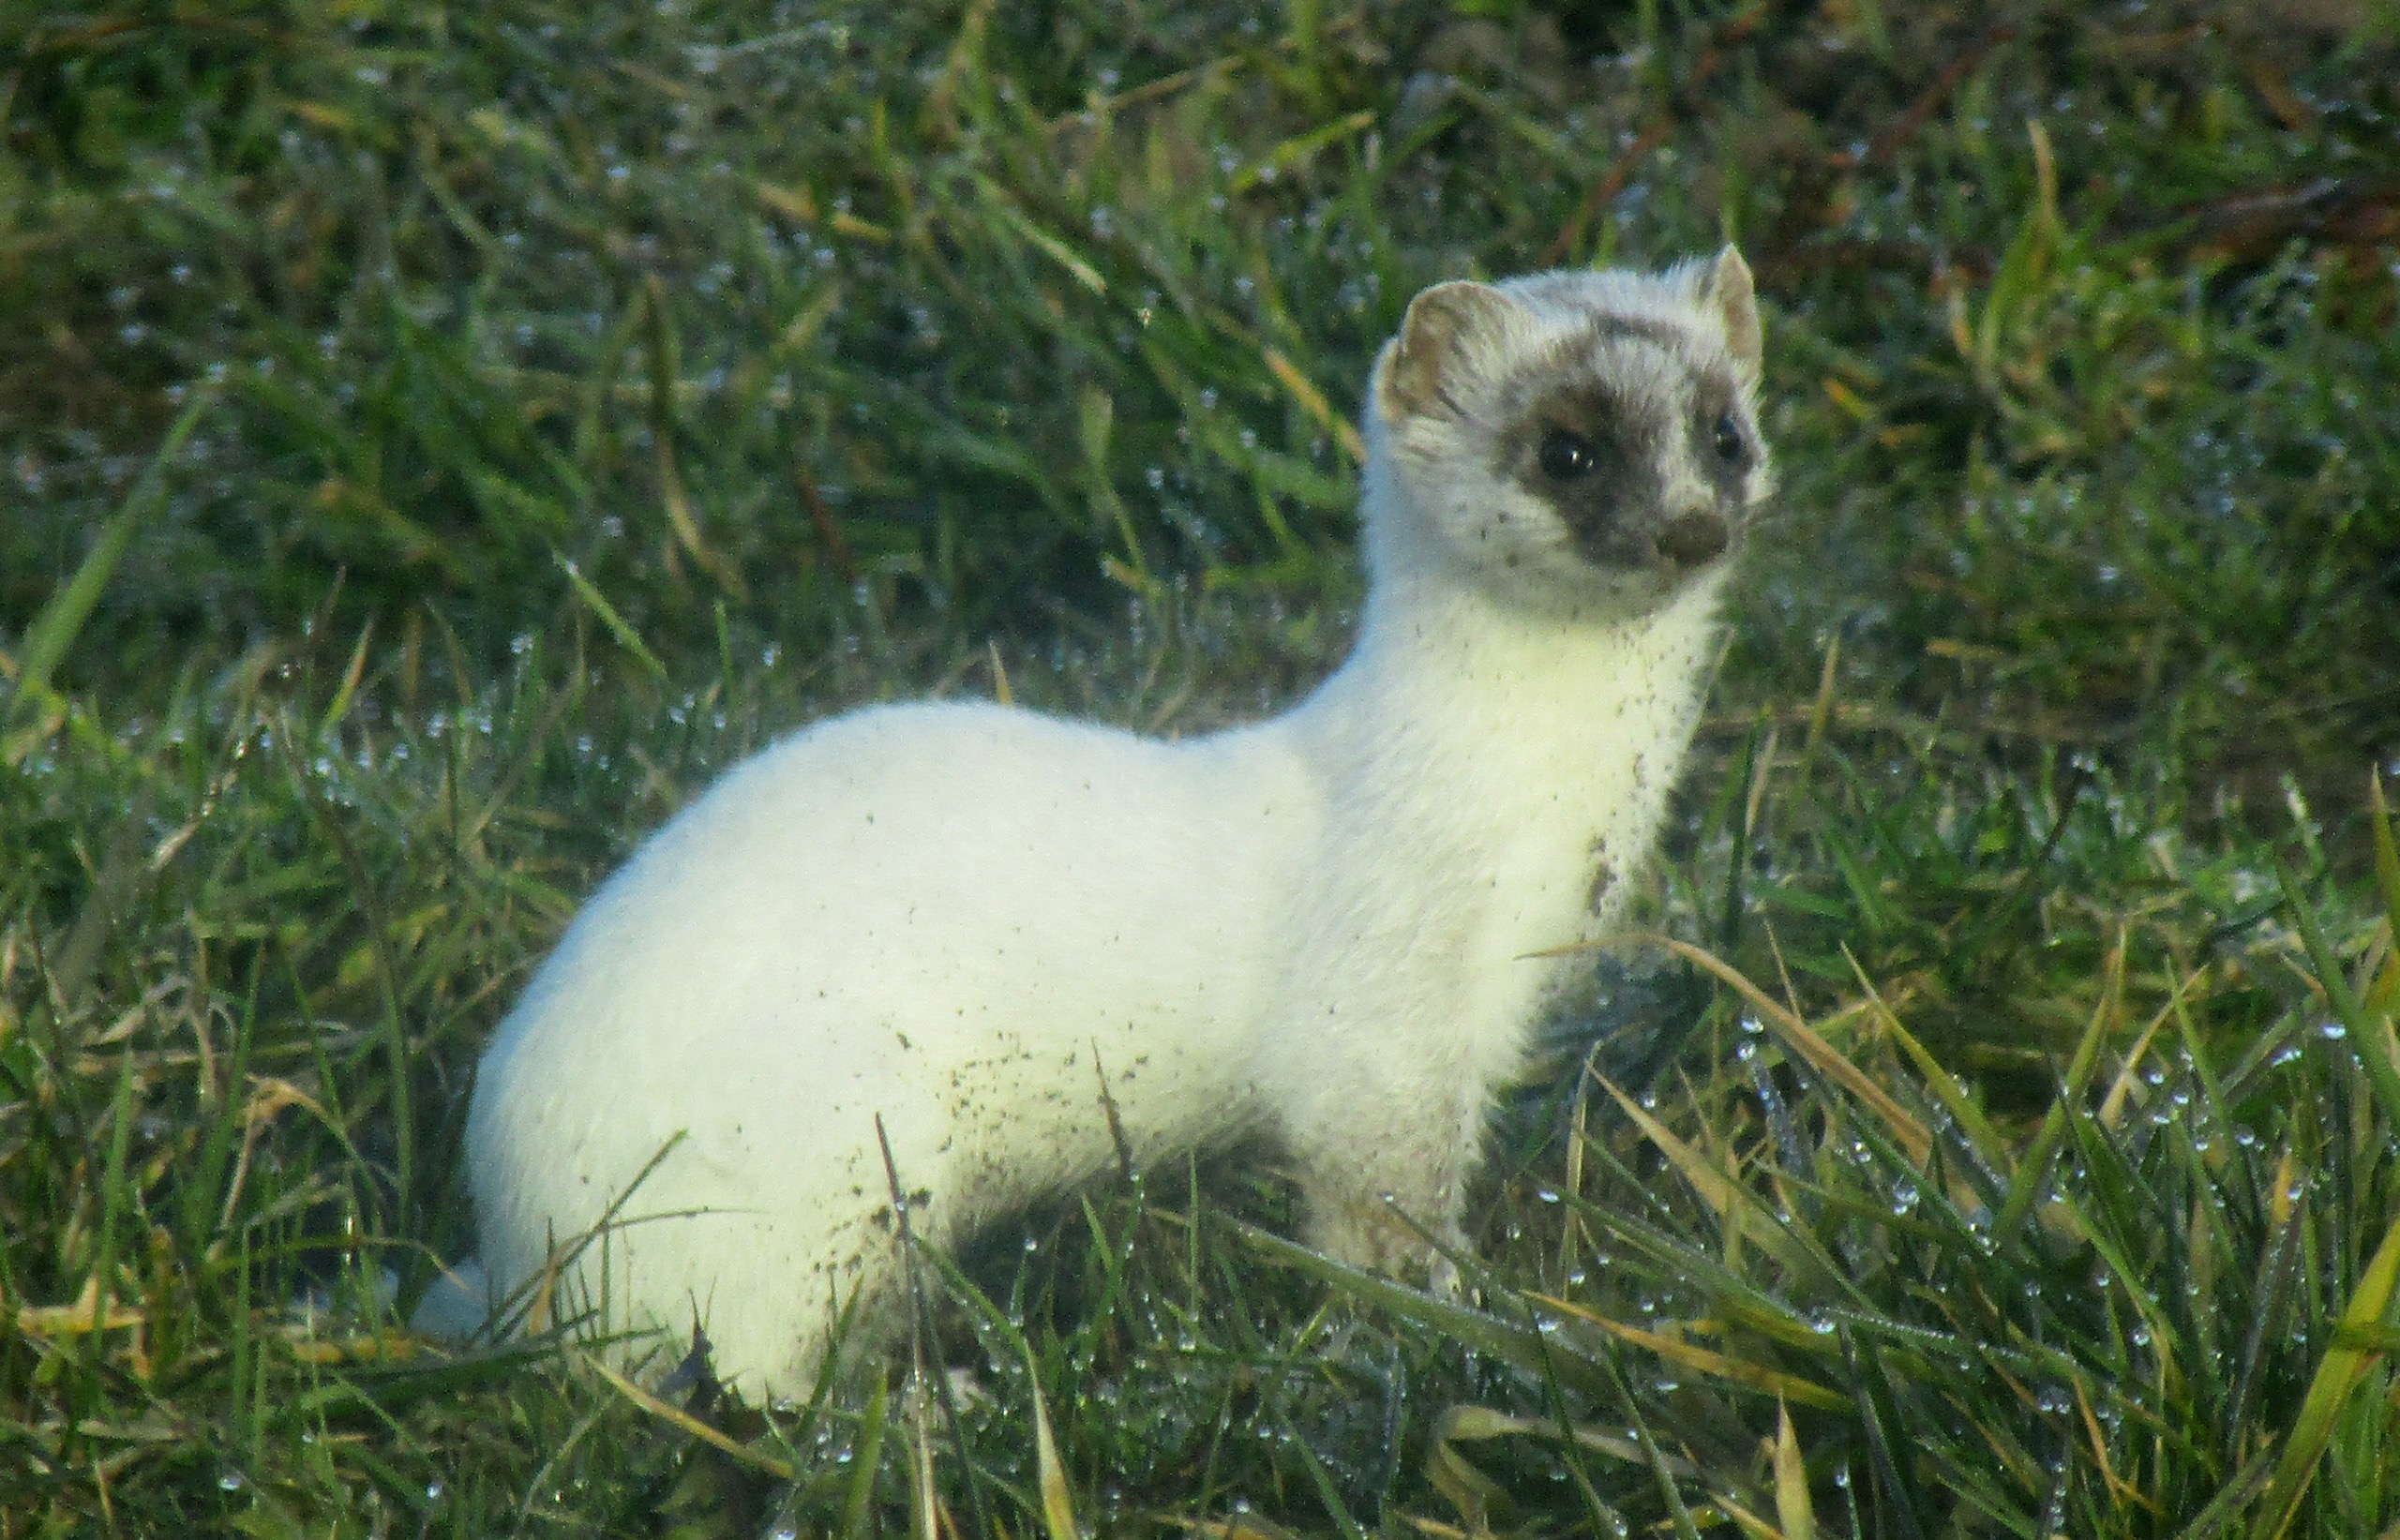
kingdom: Animalia
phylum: Chordata
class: Mammalia
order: Carnivora
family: Mustelidae
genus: Mustela
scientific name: Mustela erminea
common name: Lækat
